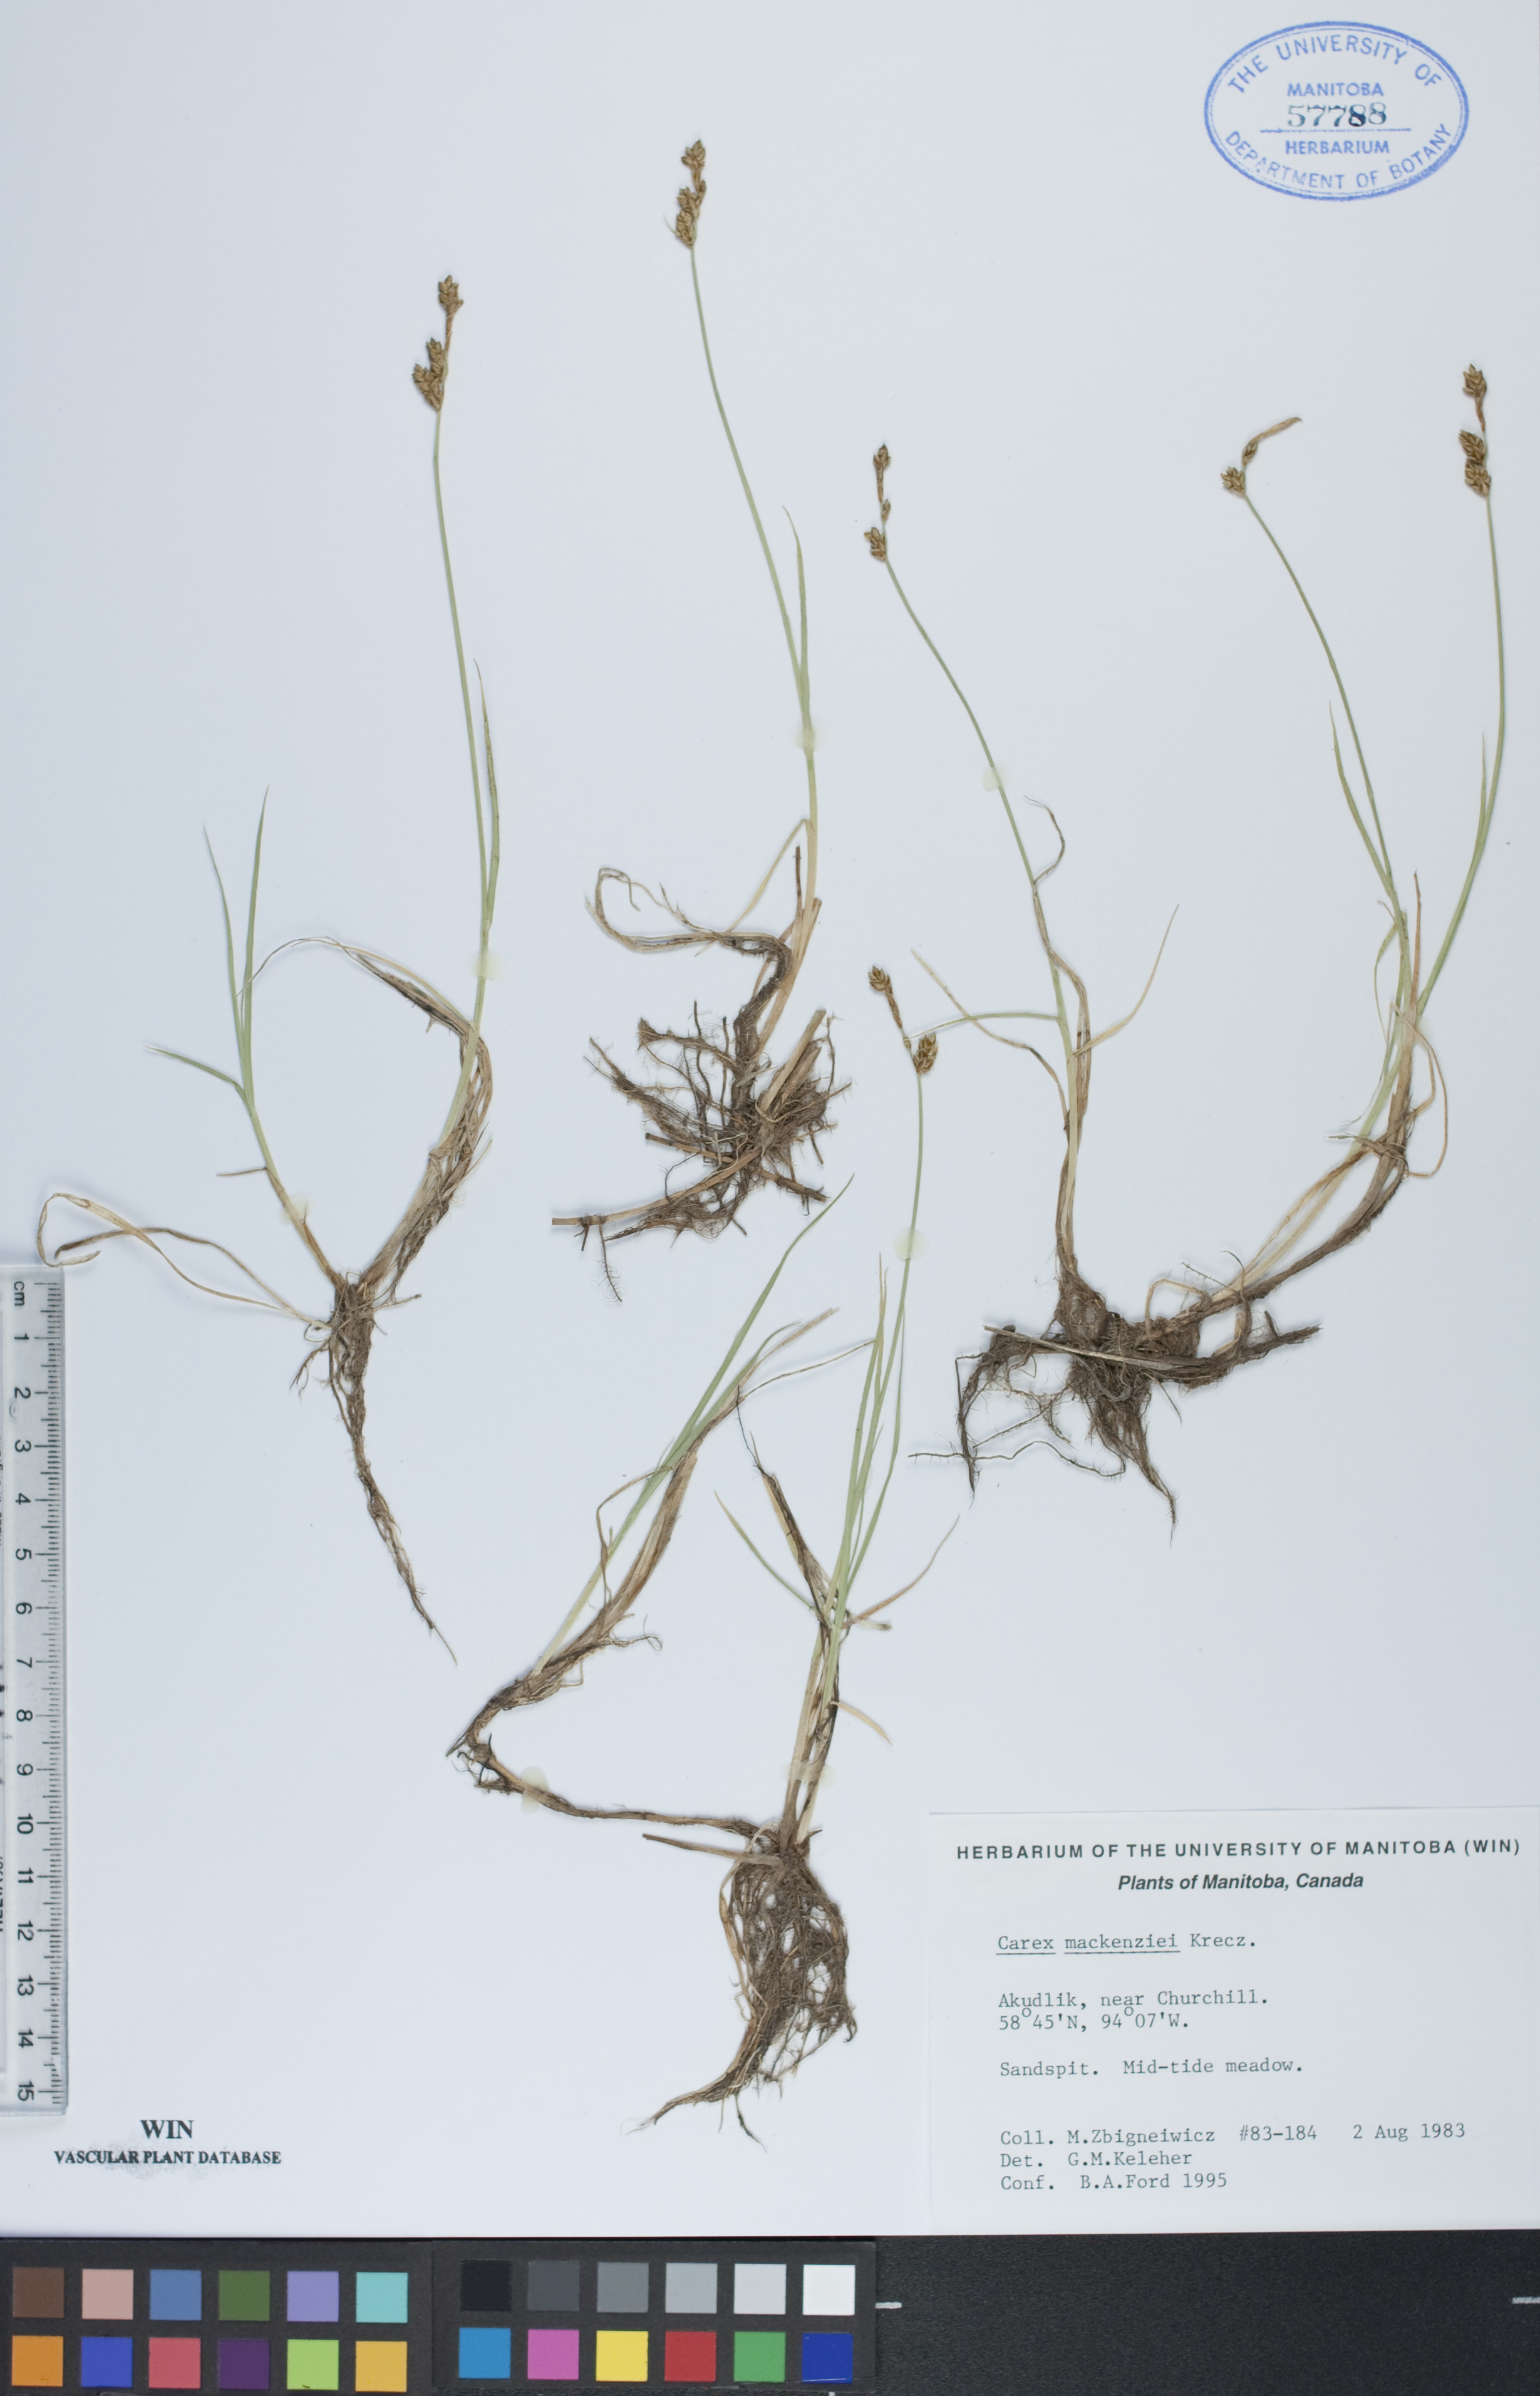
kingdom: Plantae
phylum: Tracheophyta
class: Liliopsida
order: Poales
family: Cyperaceae
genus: Carex
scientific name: Carex mackenziei
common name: Mackenzie's sedge
